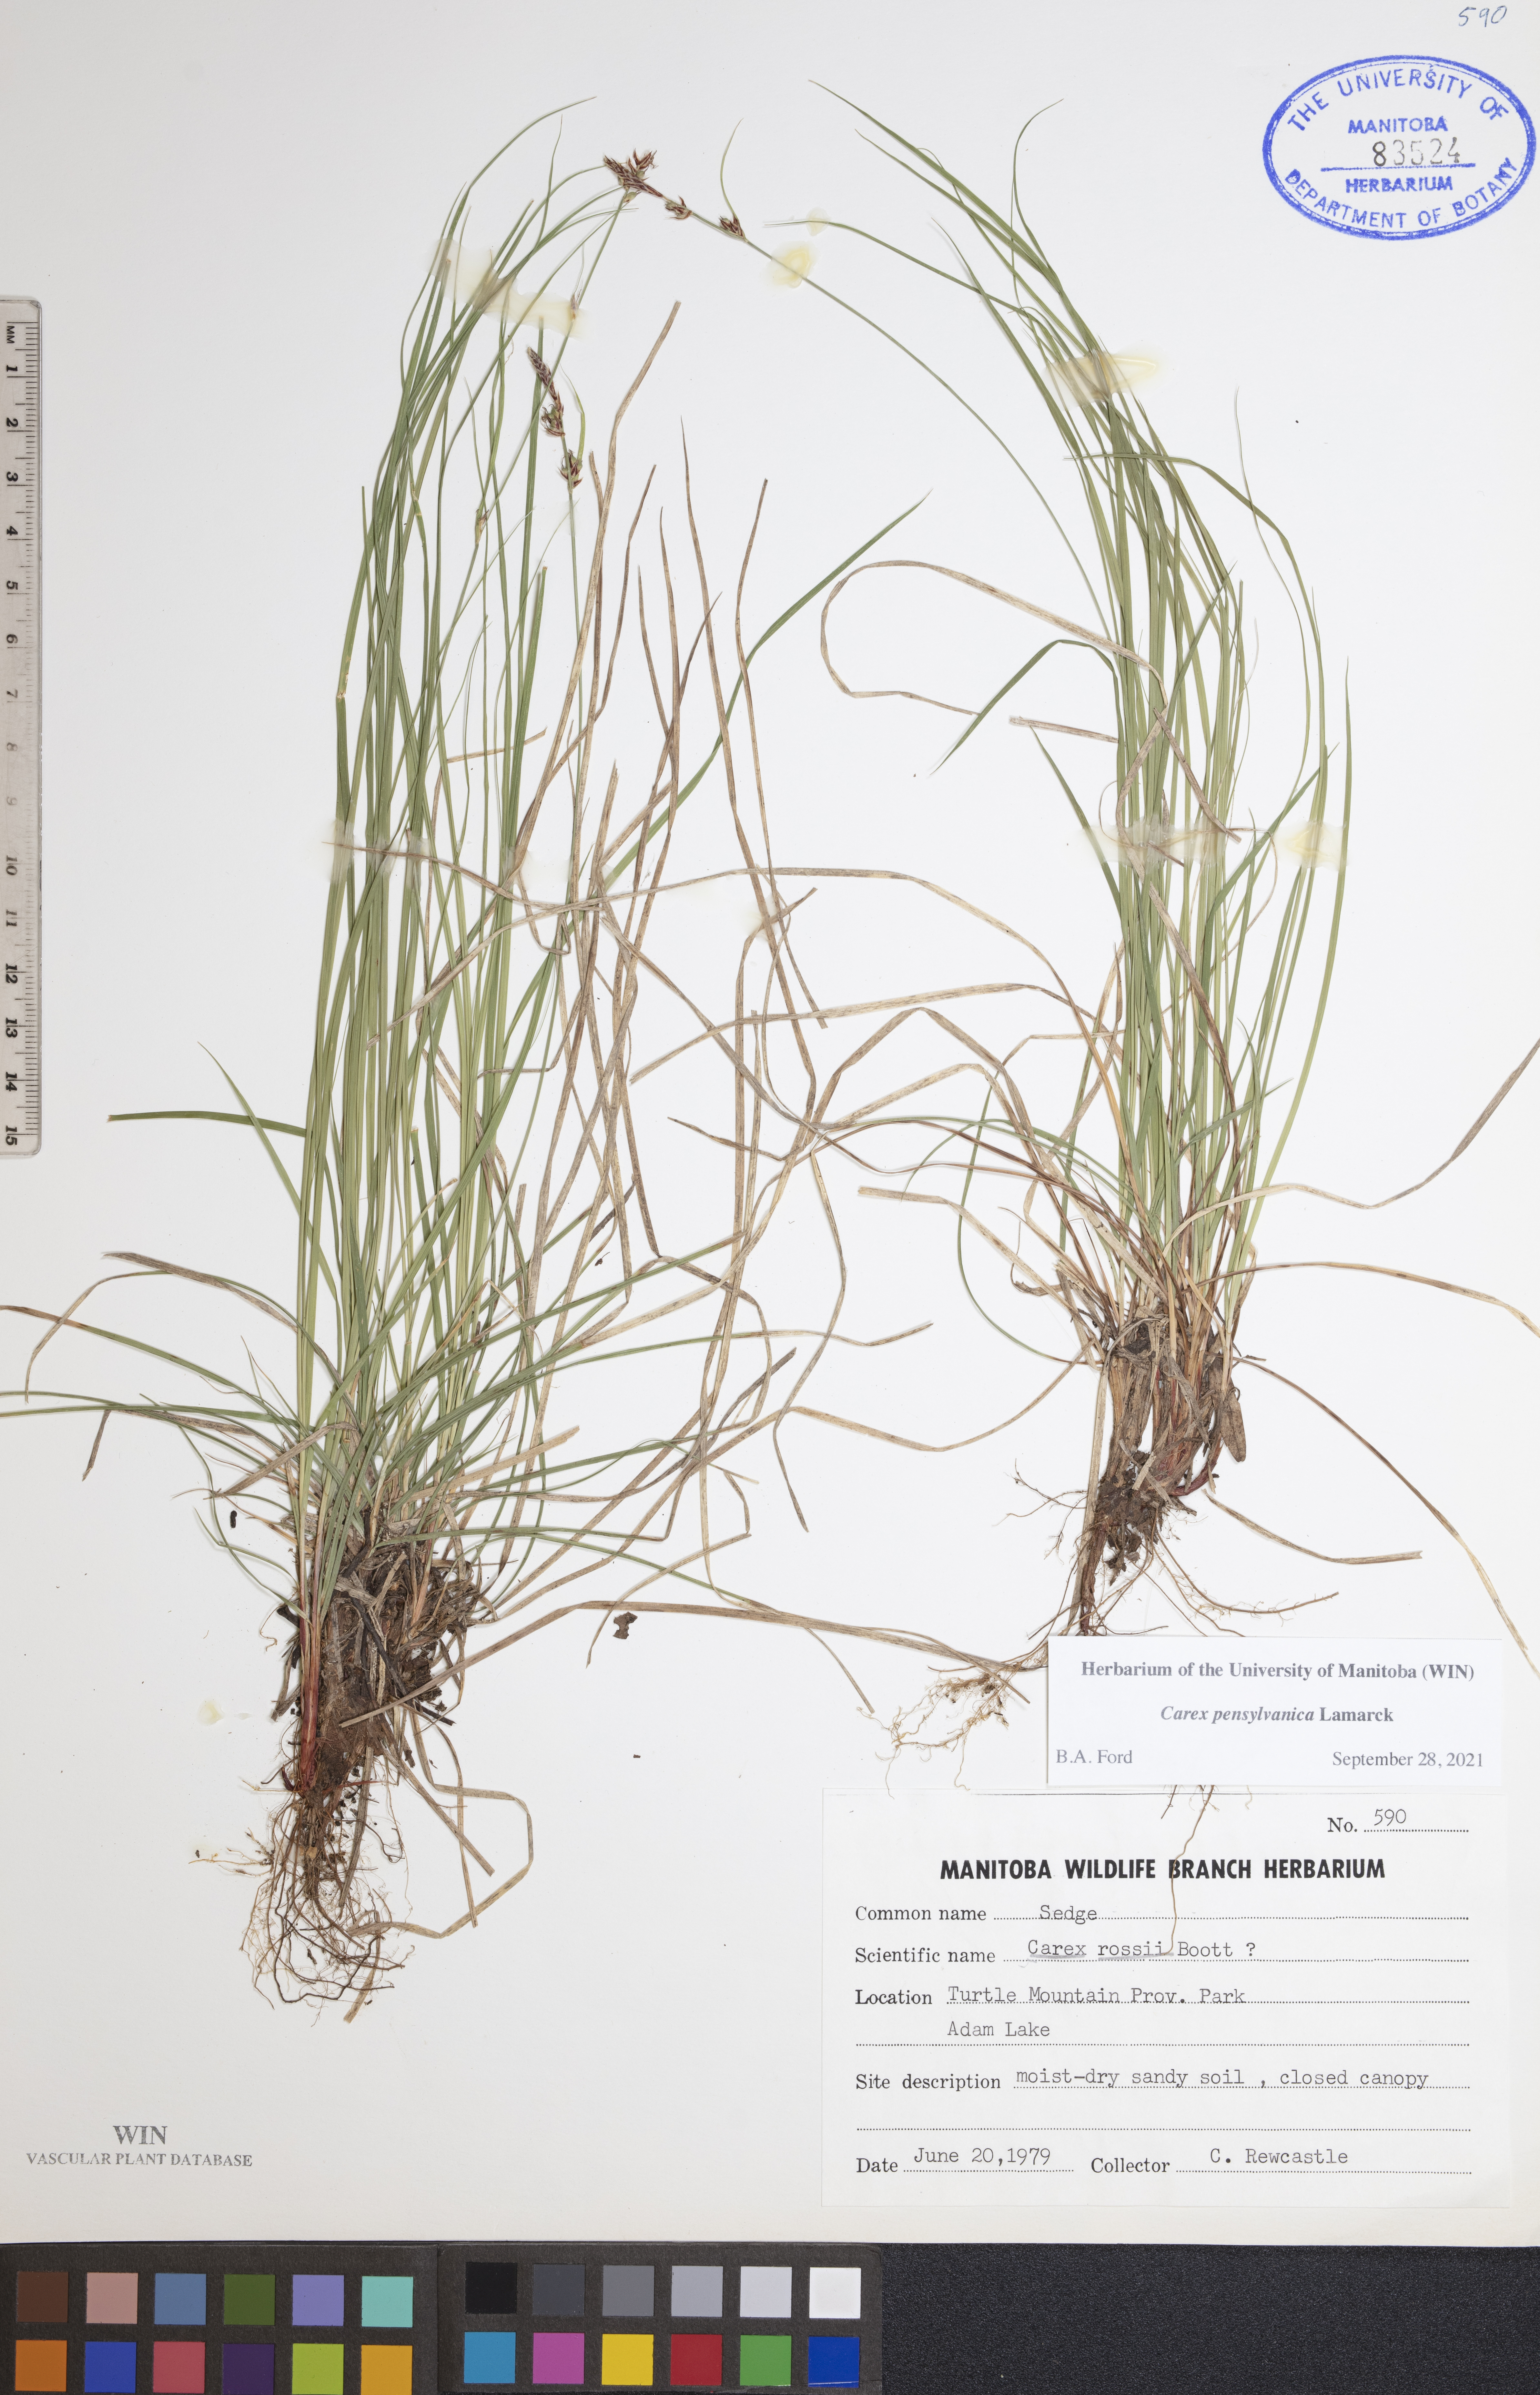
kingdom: Plantae
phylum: Tracheophyta
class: Liliopsida
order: Poales
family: Cyperaceae
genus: Carex
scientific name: Carex pensylvanica
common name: Common oak sedge
